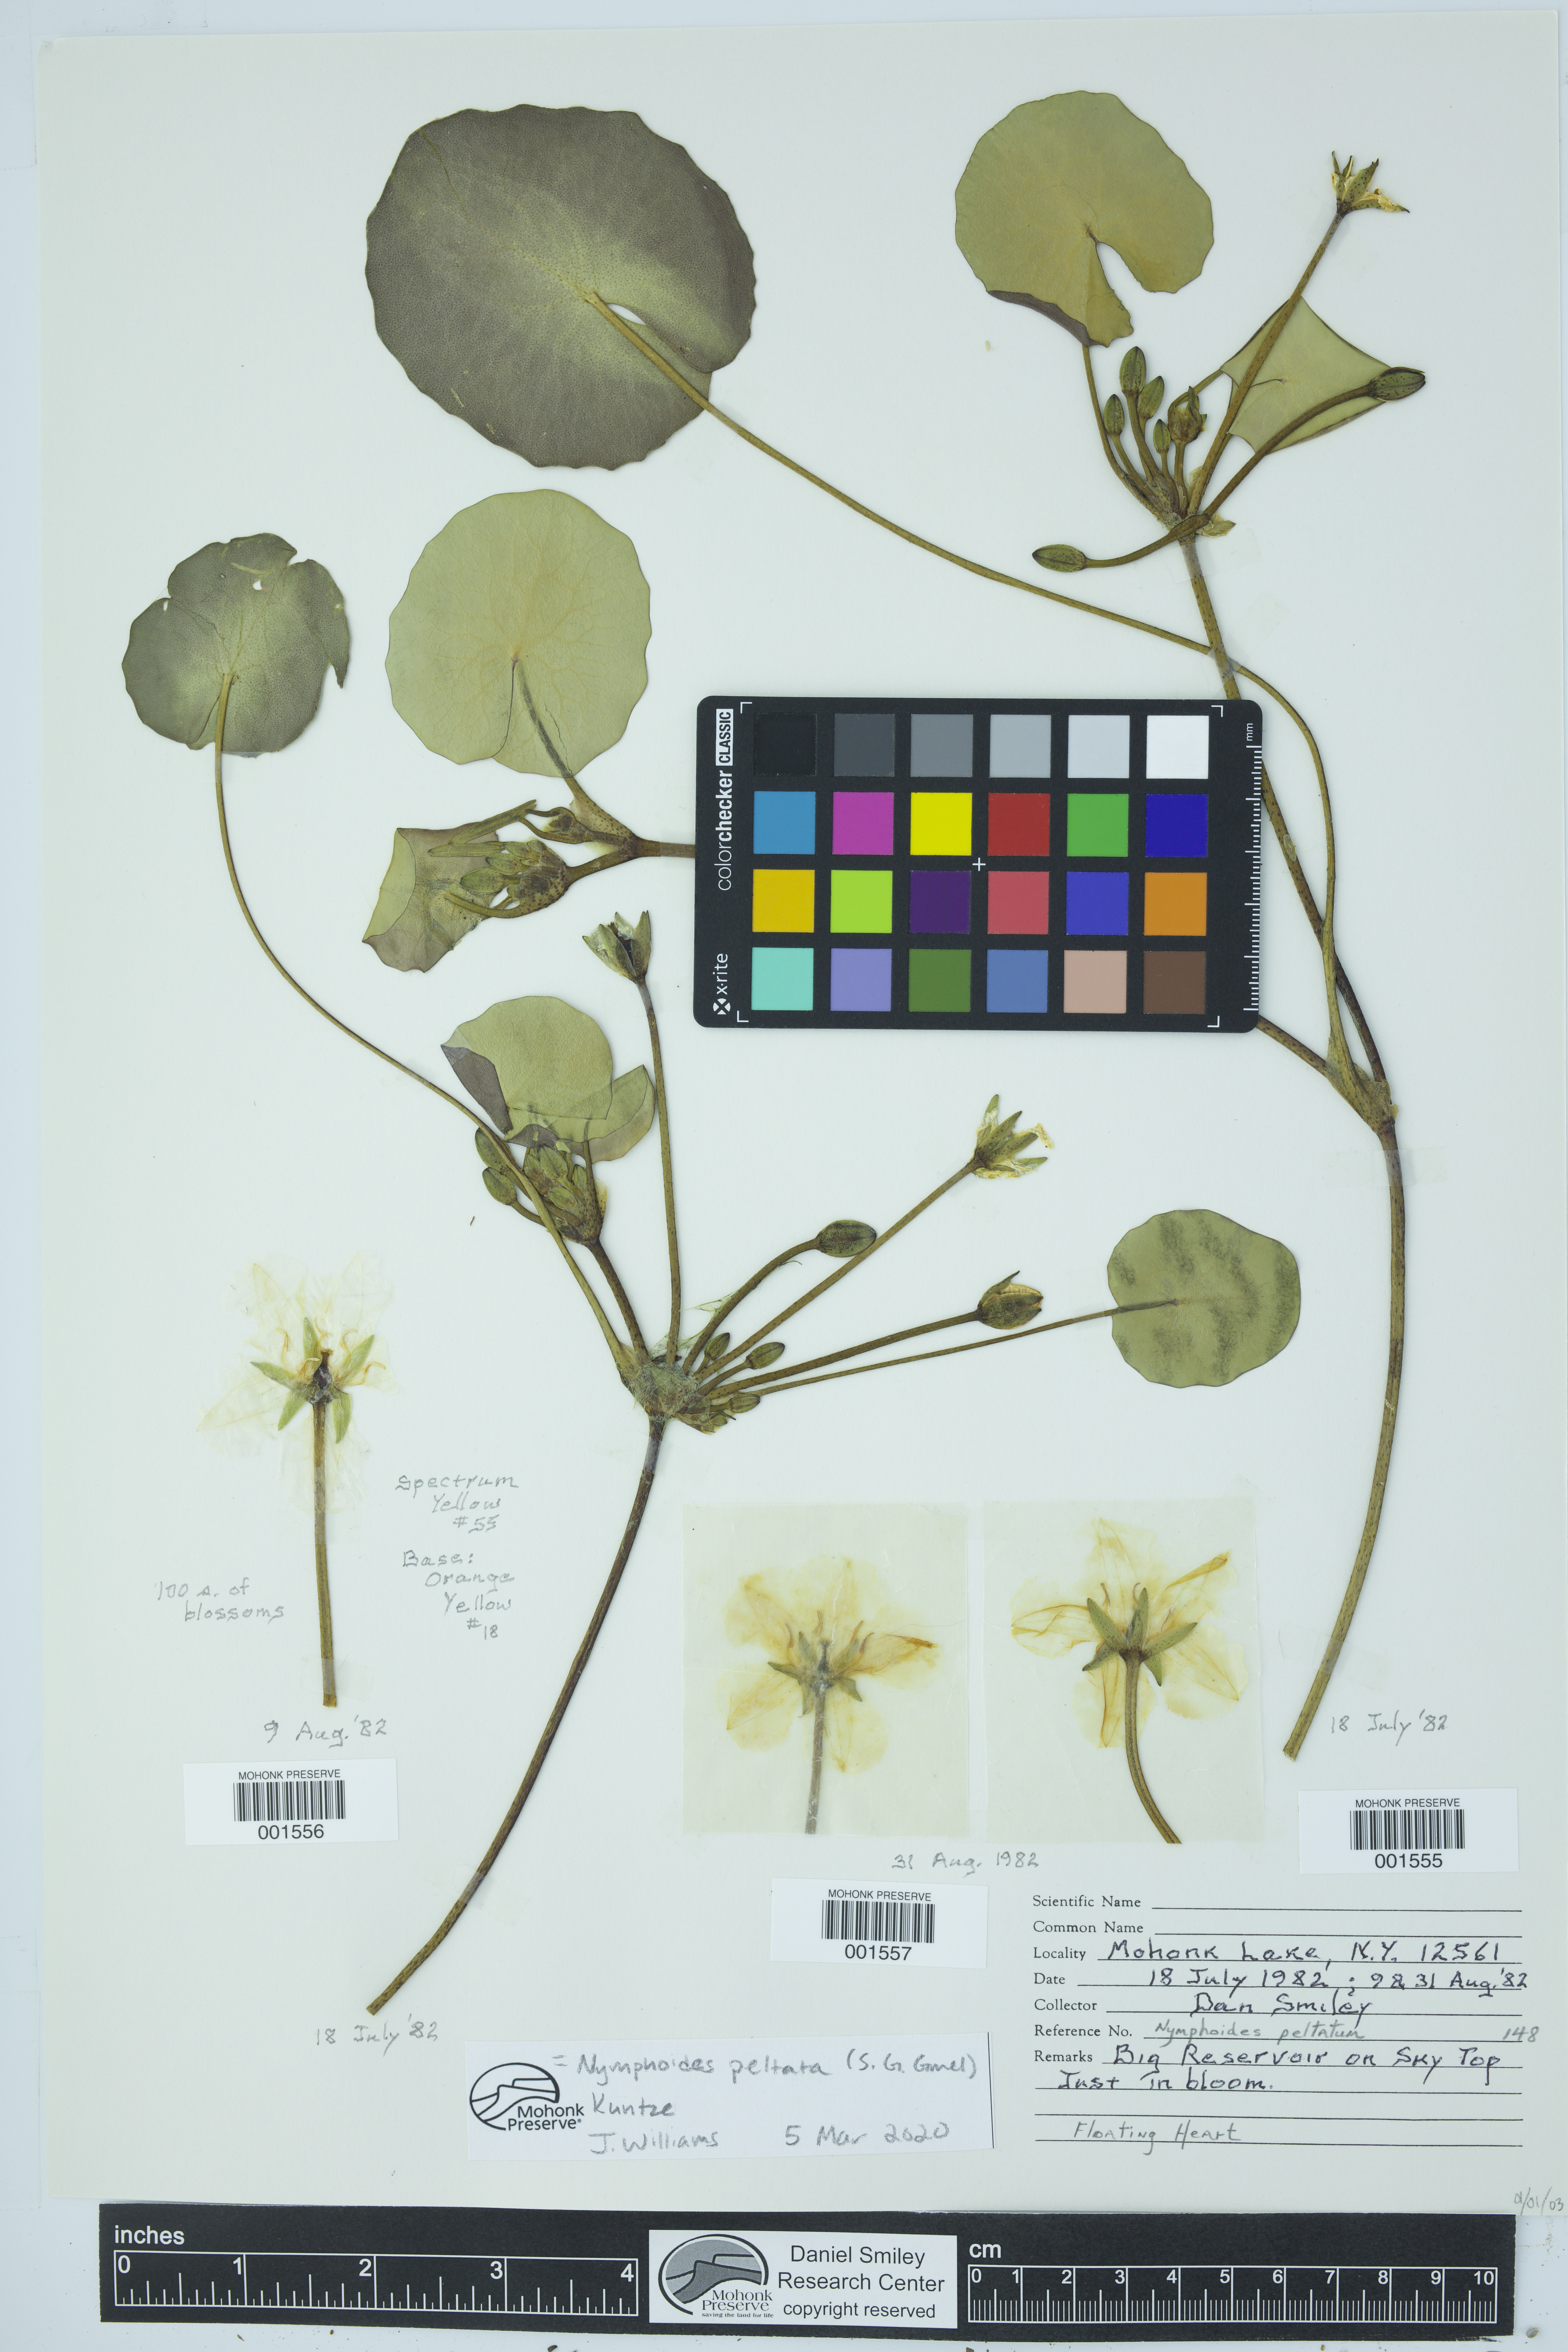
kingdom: Plantae
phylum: Tracheophyta
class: Magnoliopsida
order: Asterales
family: Menyanthaceae
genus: Nymphoides
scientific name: Nymphoides peltata
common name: Fringed water-lily
